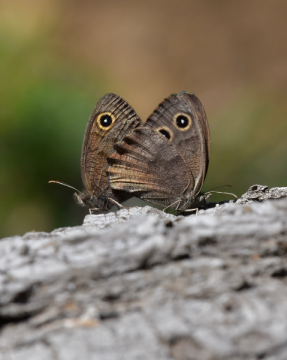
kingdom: Animalia
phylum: Arthropoda
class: Insecta
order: Lepidoptera
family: Nymphalidae
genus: Cercyonis
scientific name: Cercyonis pegala
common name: Common Wood-Nymph
